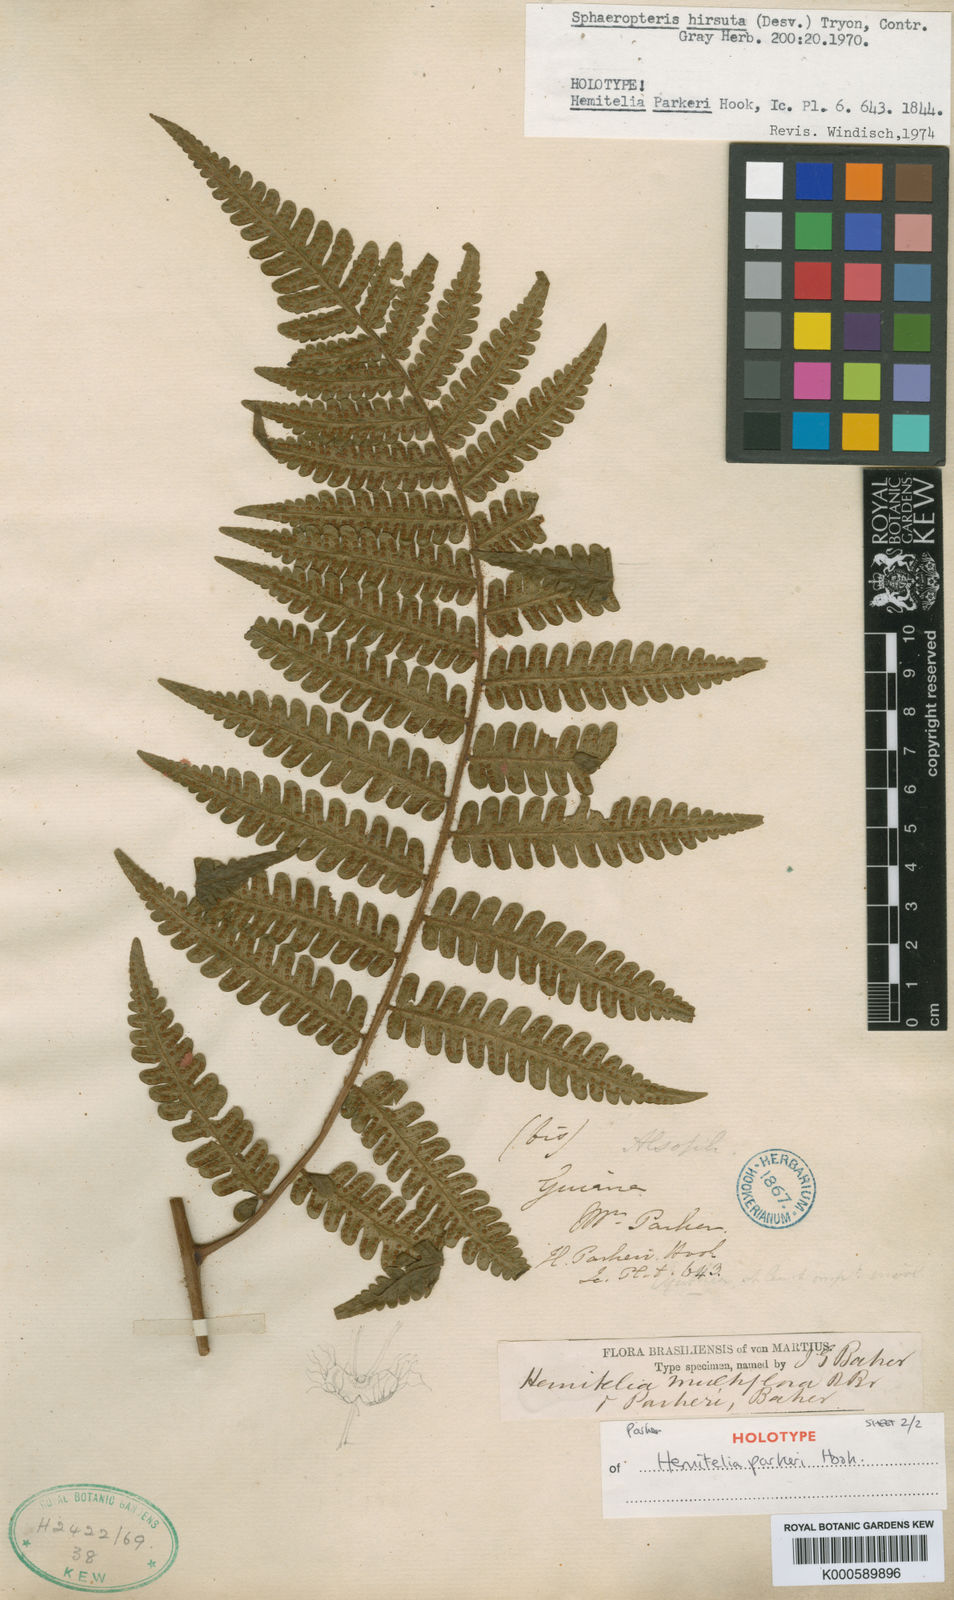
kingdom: Plantae
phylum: Tracheophyta
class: Polypodiopsida
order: Cyatheales
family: Cyatheaceae
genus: Cyathea
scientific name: Cyathea surinamensis
